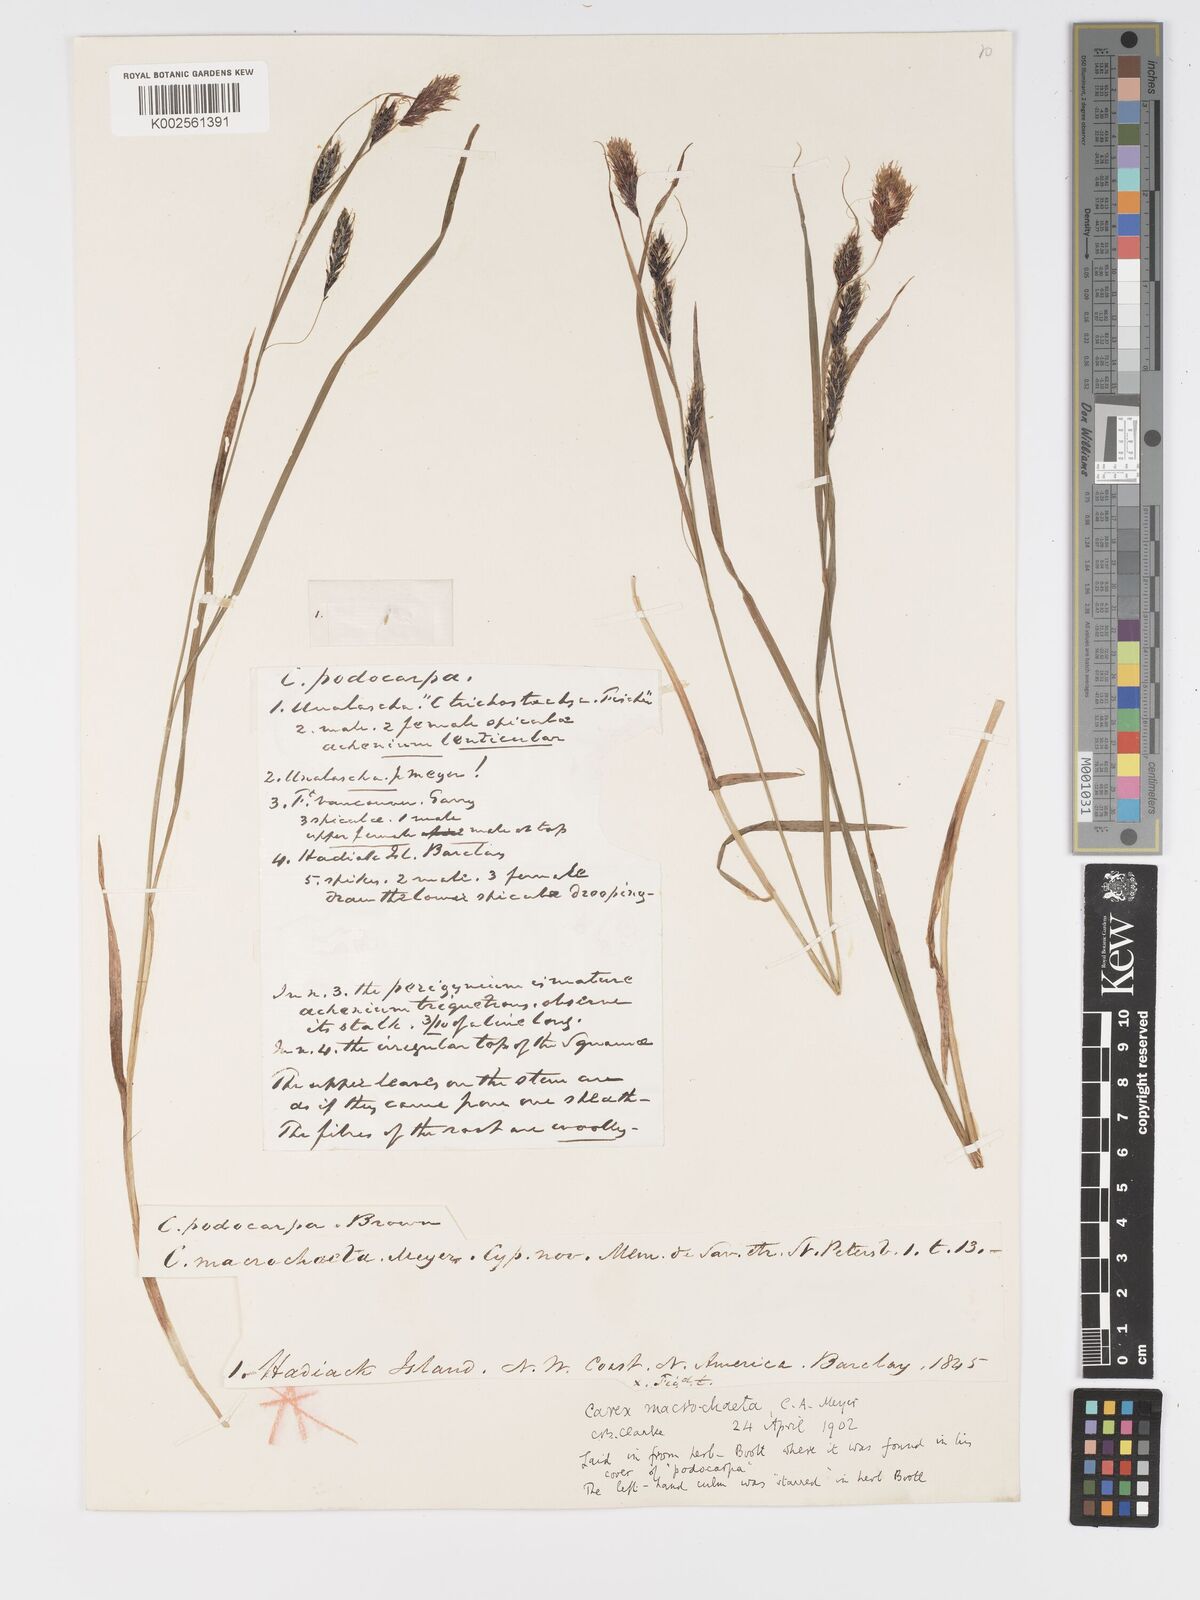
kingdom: Plantae
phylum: Tracheophyta
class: Liliopsida
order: Poales
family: Cyperaceae
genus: Carex
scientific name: Carex macrochaeta
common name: Alaska large awn sedge
